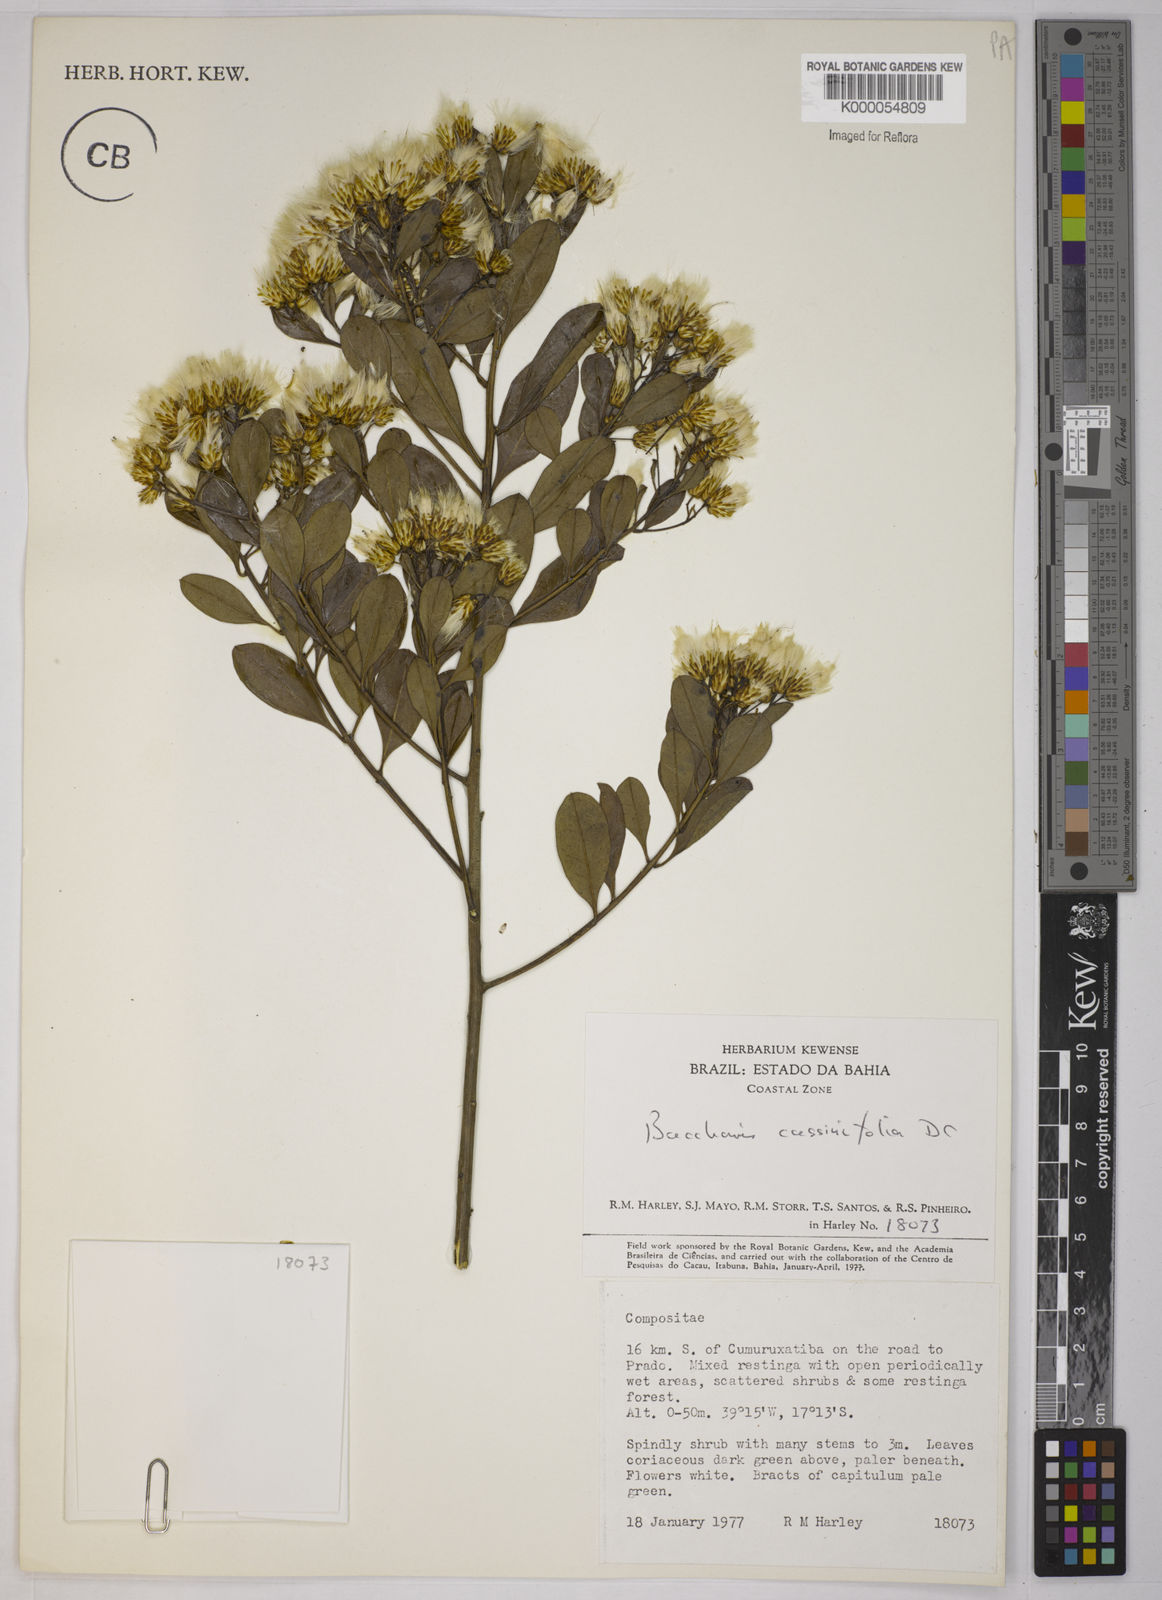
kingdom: Plantae
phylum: Tracheophyta
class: Magnoliopsida
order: Asterales
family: Asteraceae
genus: Baccharis
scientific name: Baccharis singularis
